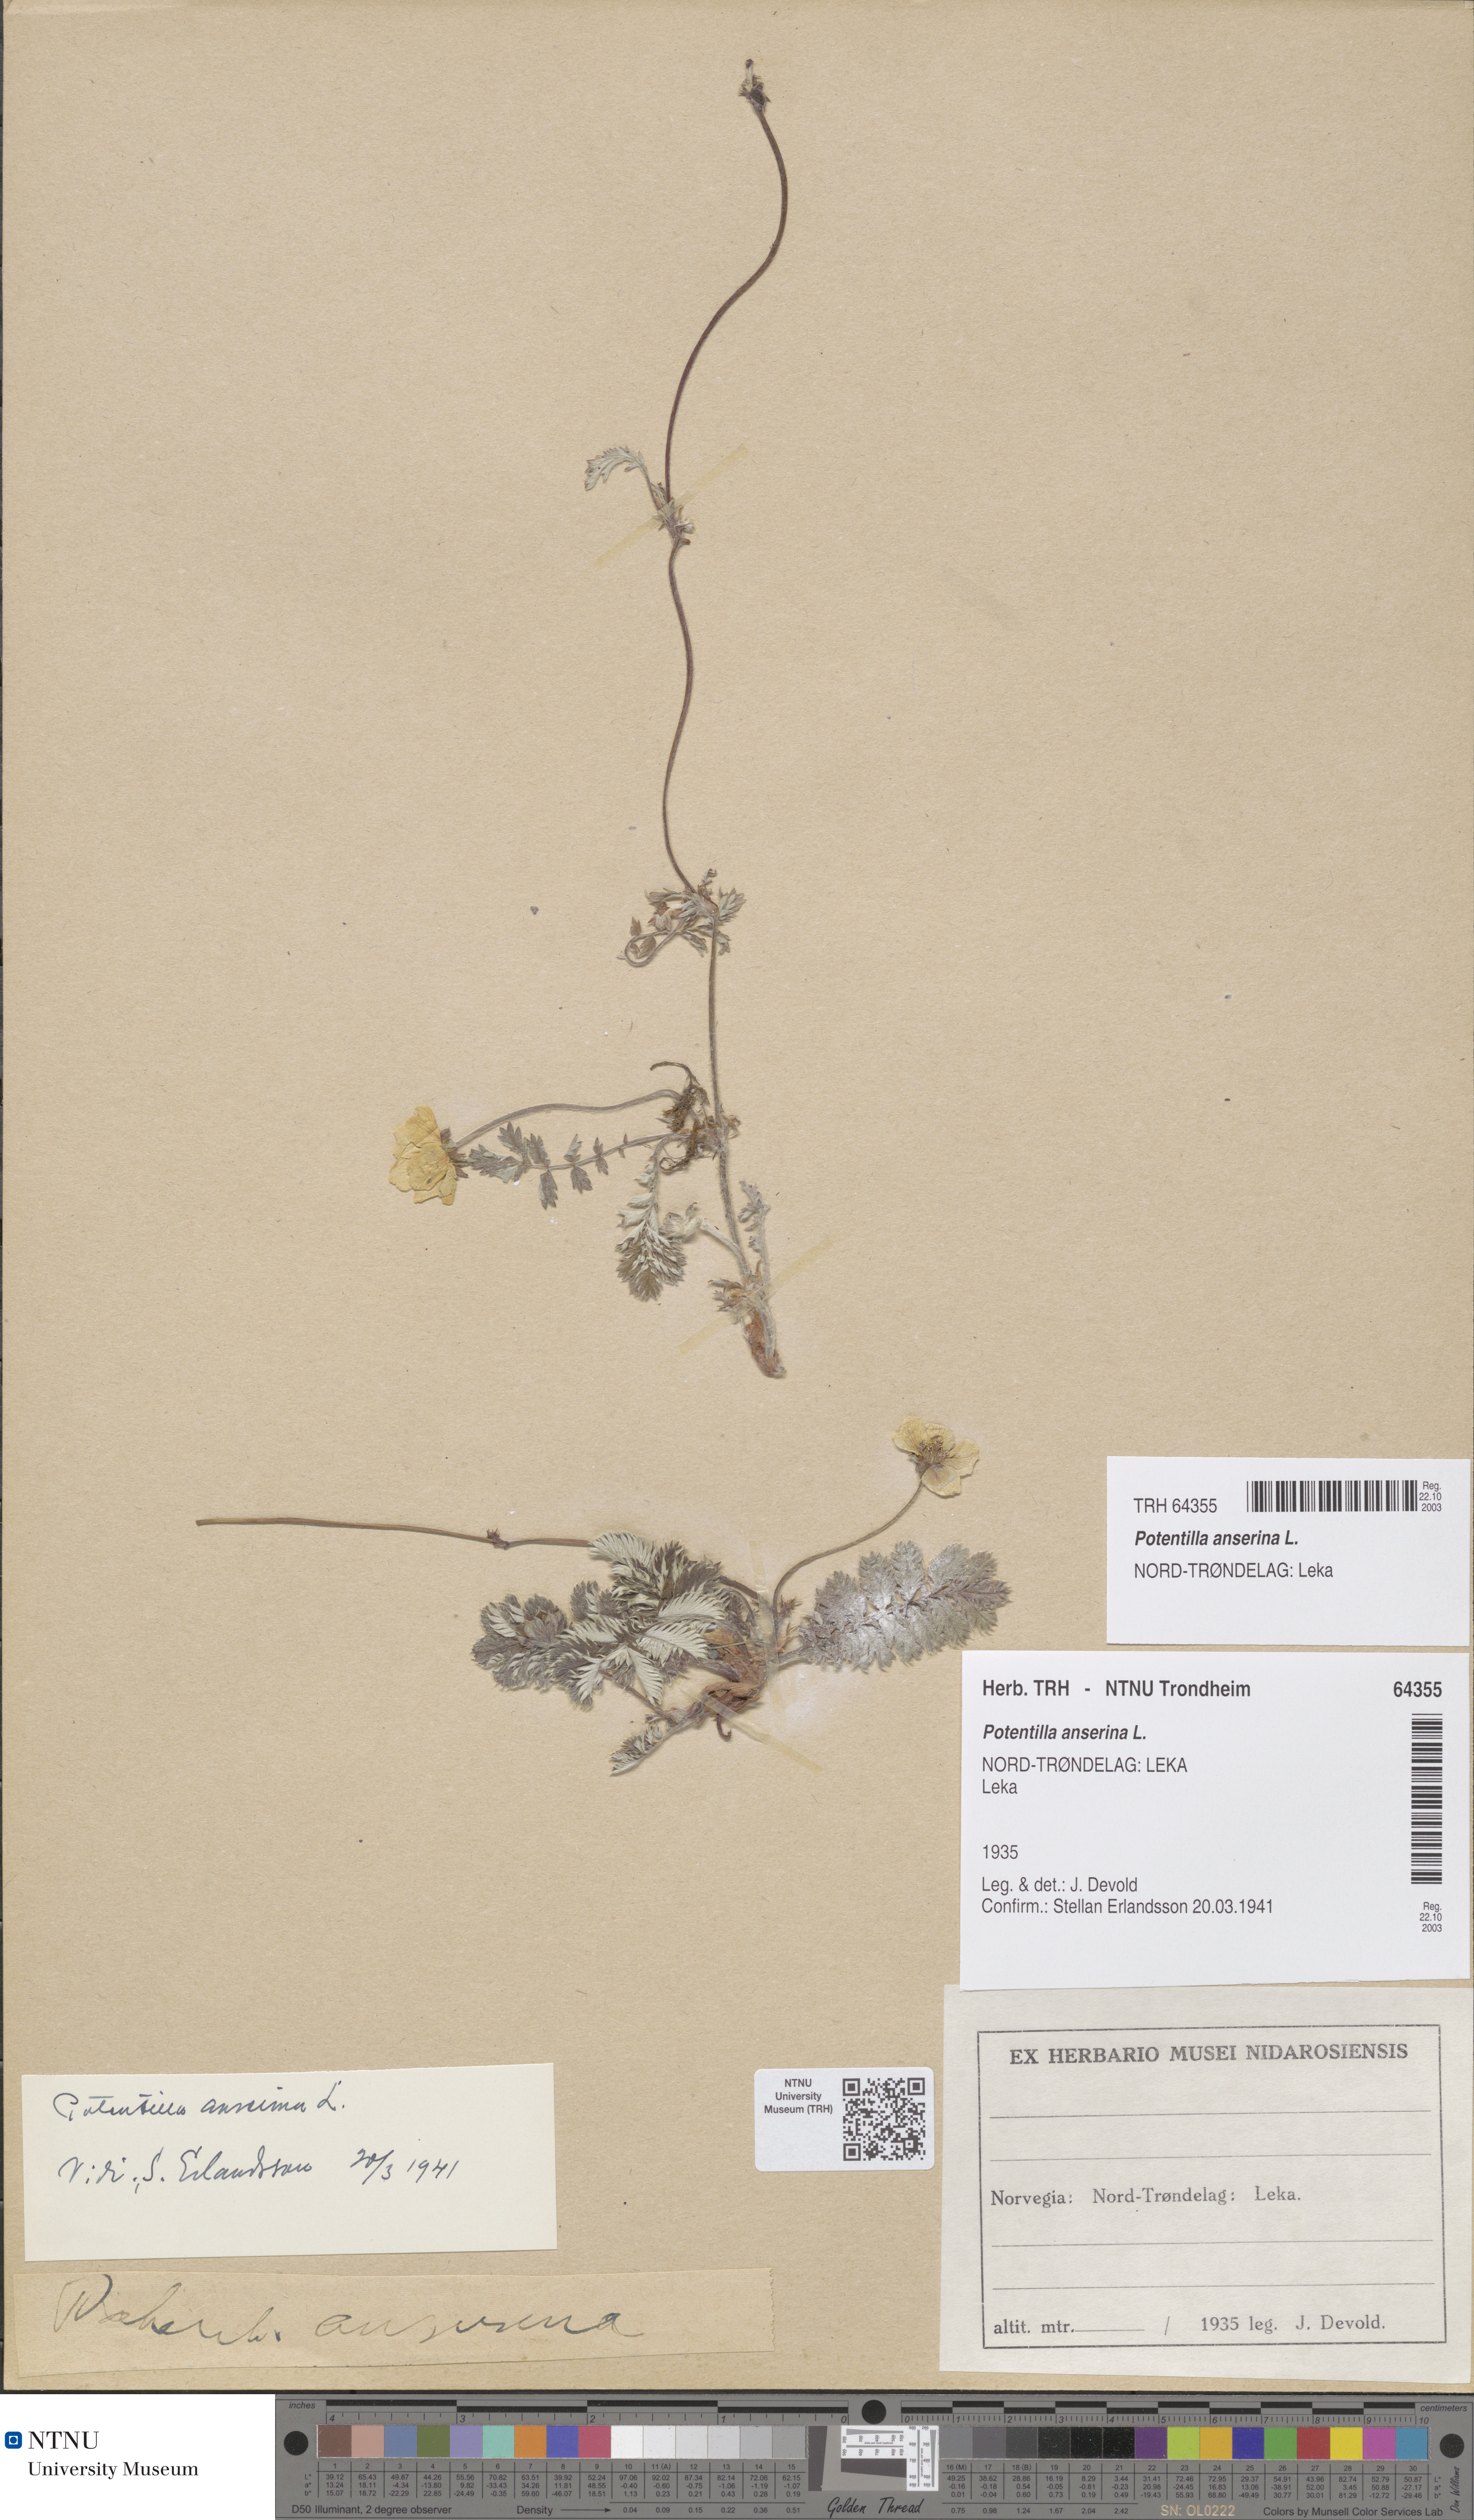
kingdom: Plantae
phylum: Tracheophyta
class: Magnoliopsida
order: Rosales
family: Rosaceae
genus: Argentina
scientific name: Argentina anserina
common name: Common silverweed
